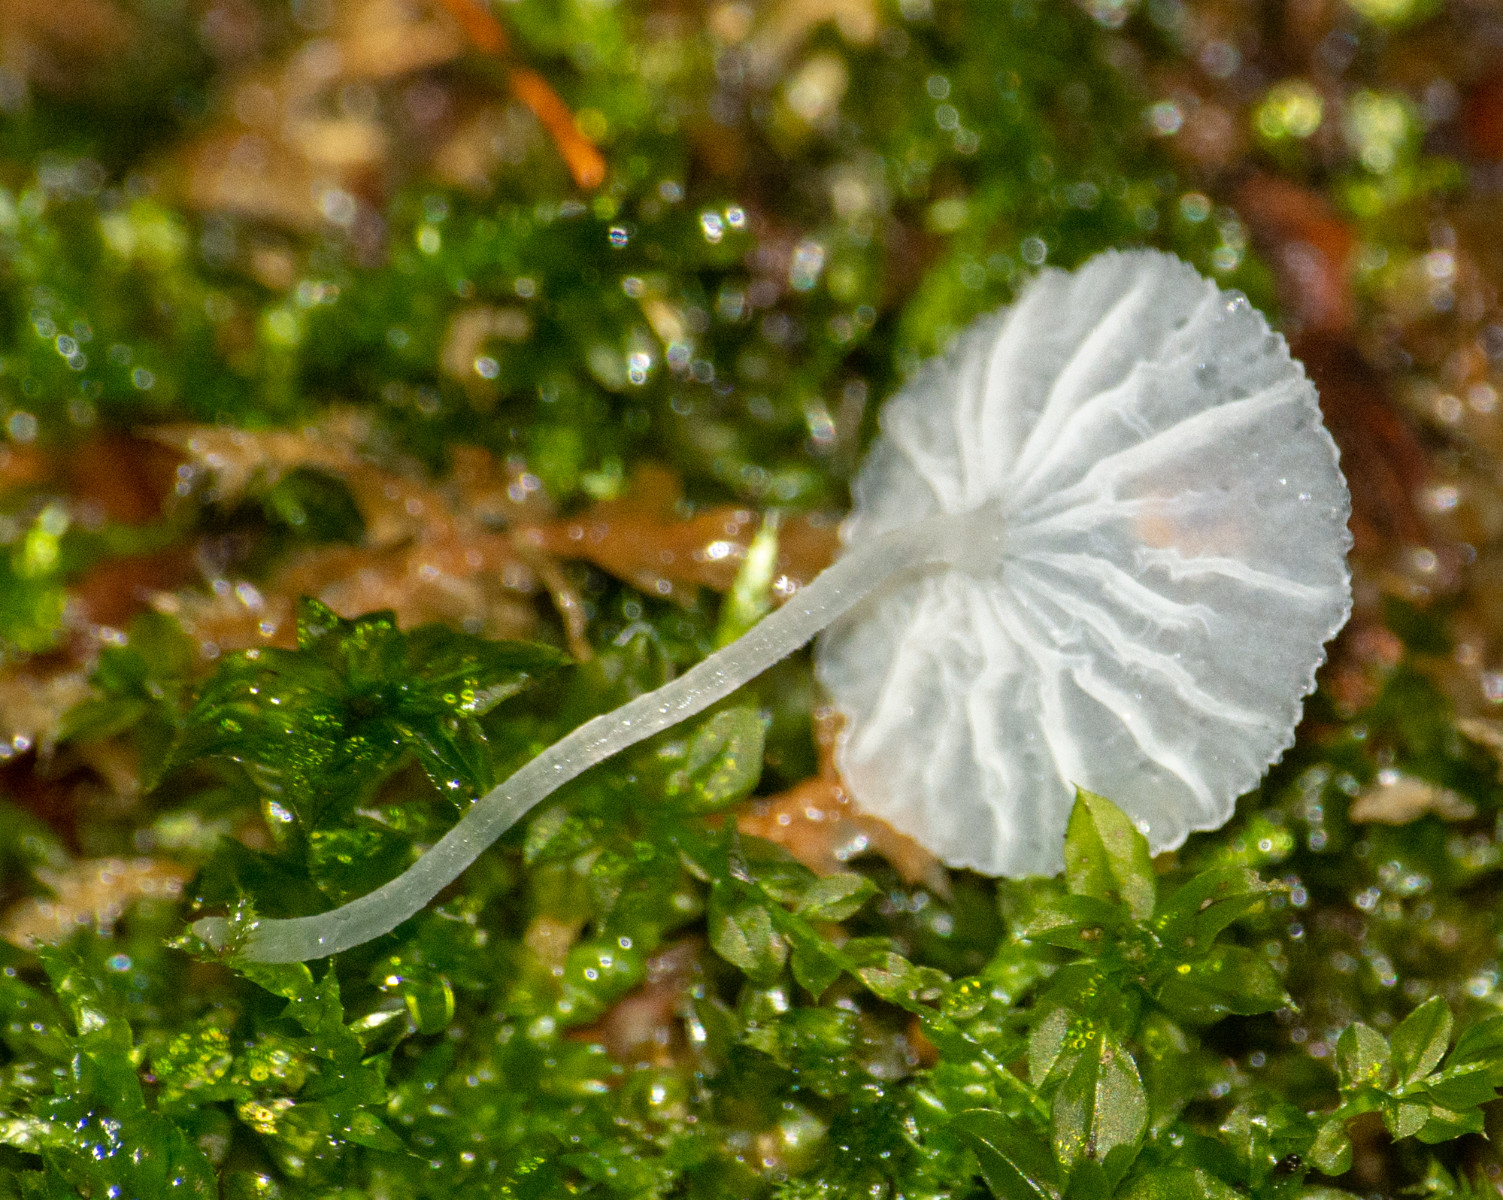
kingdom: Fungi
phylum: Basidiomycota
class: Agaricomycetes
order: Agaricales
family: Tricholomataceae
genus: Delicatula
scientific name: Delicatula integrella
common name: slørhuesvamp
